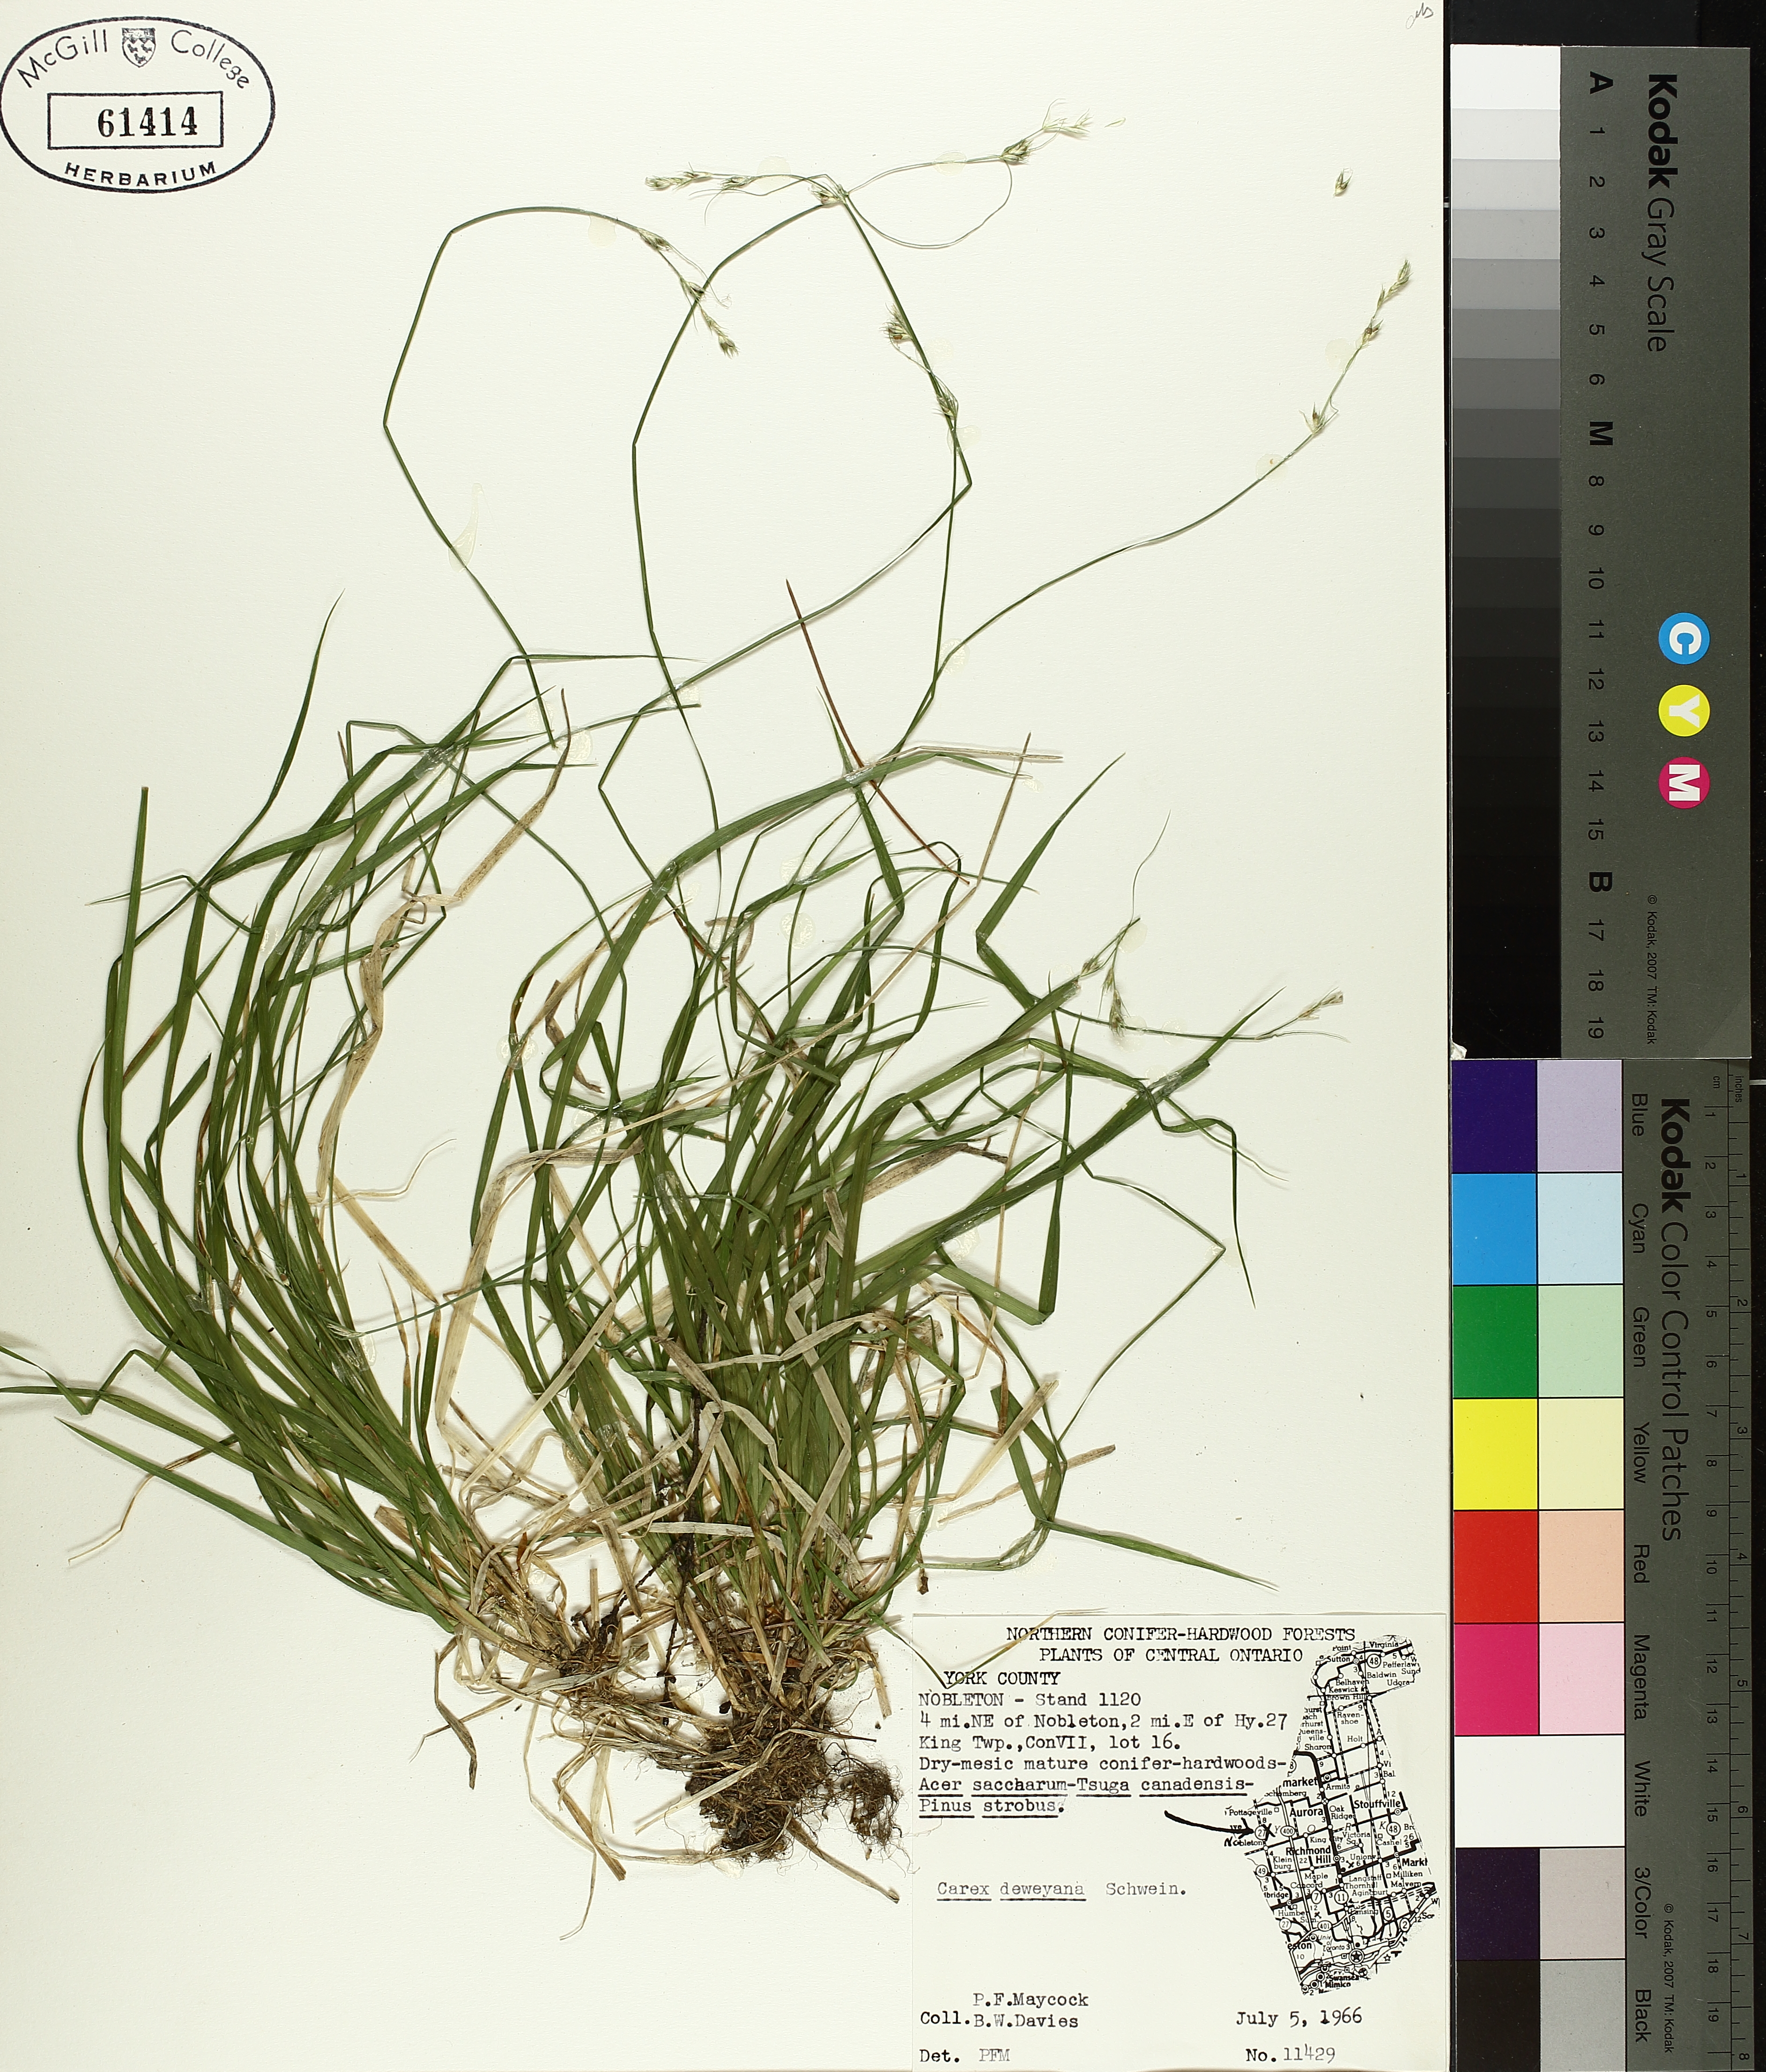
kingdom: Plantae
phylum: Tracheophyta
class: Liliopsida
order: Poales
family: Cyperaceae
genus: Carex
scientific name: Carex deweyana
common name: Dewey's sedge
